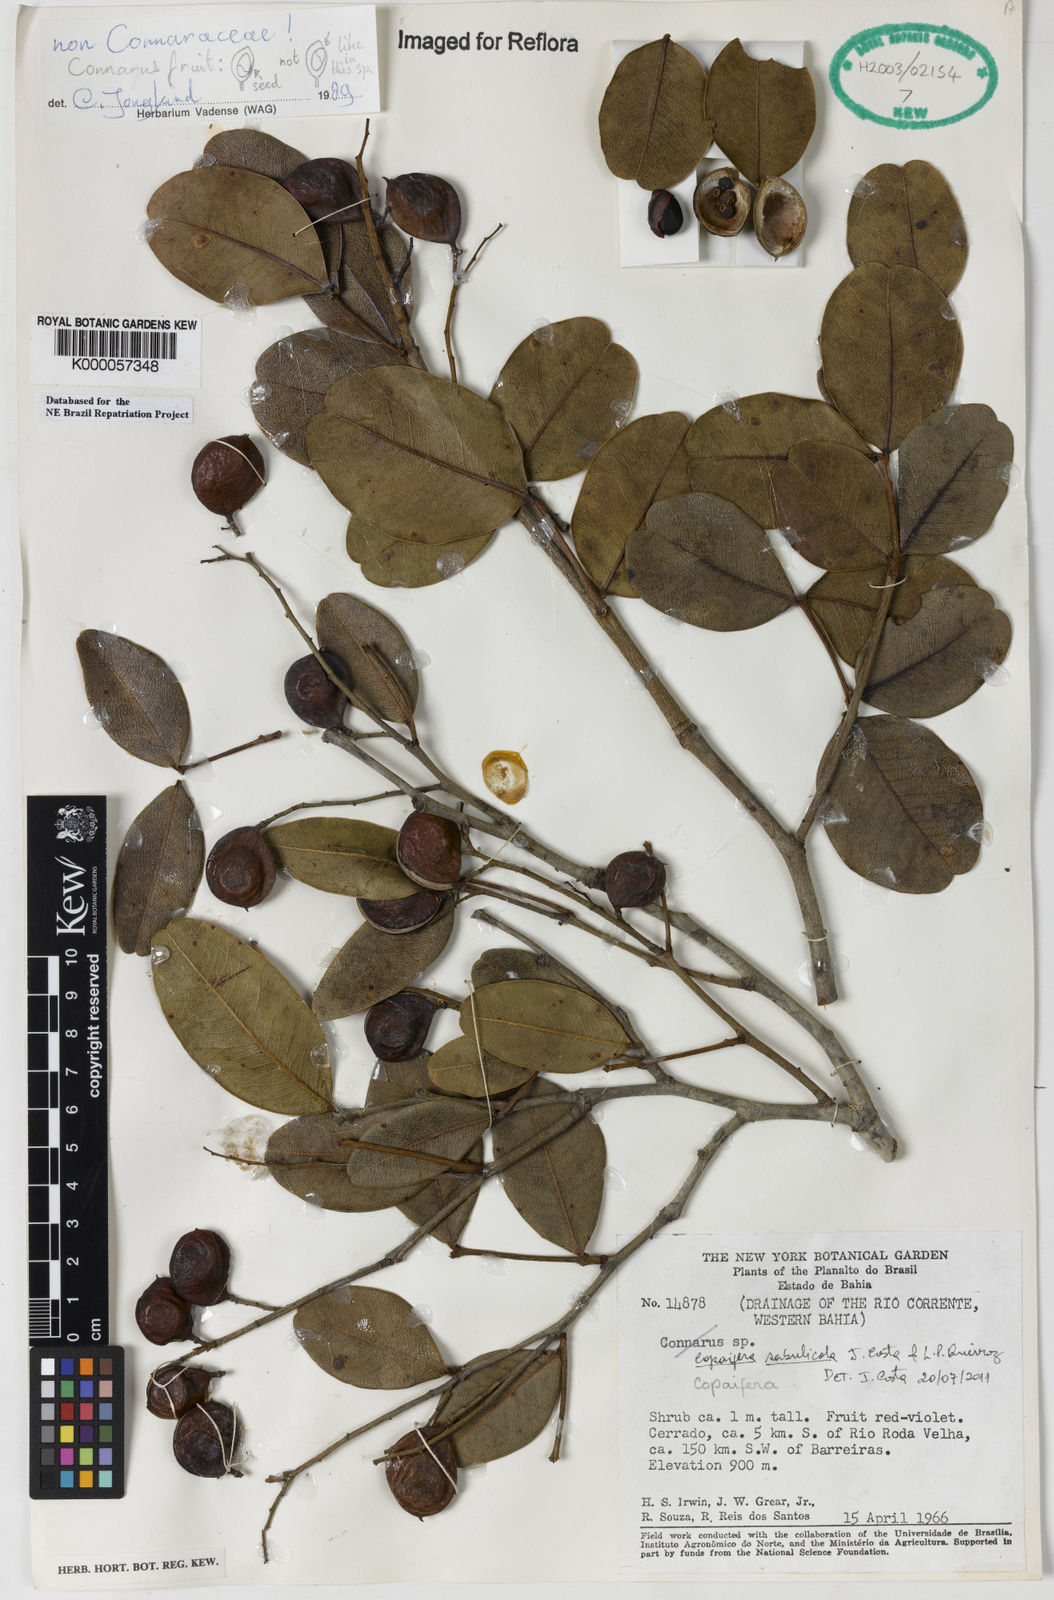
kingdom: Plantae
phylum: Tracheophyta
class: Magnoliopsida
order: Fabales
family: Fabaceae
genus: Copaifera
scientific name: Copaifera sabulicola
